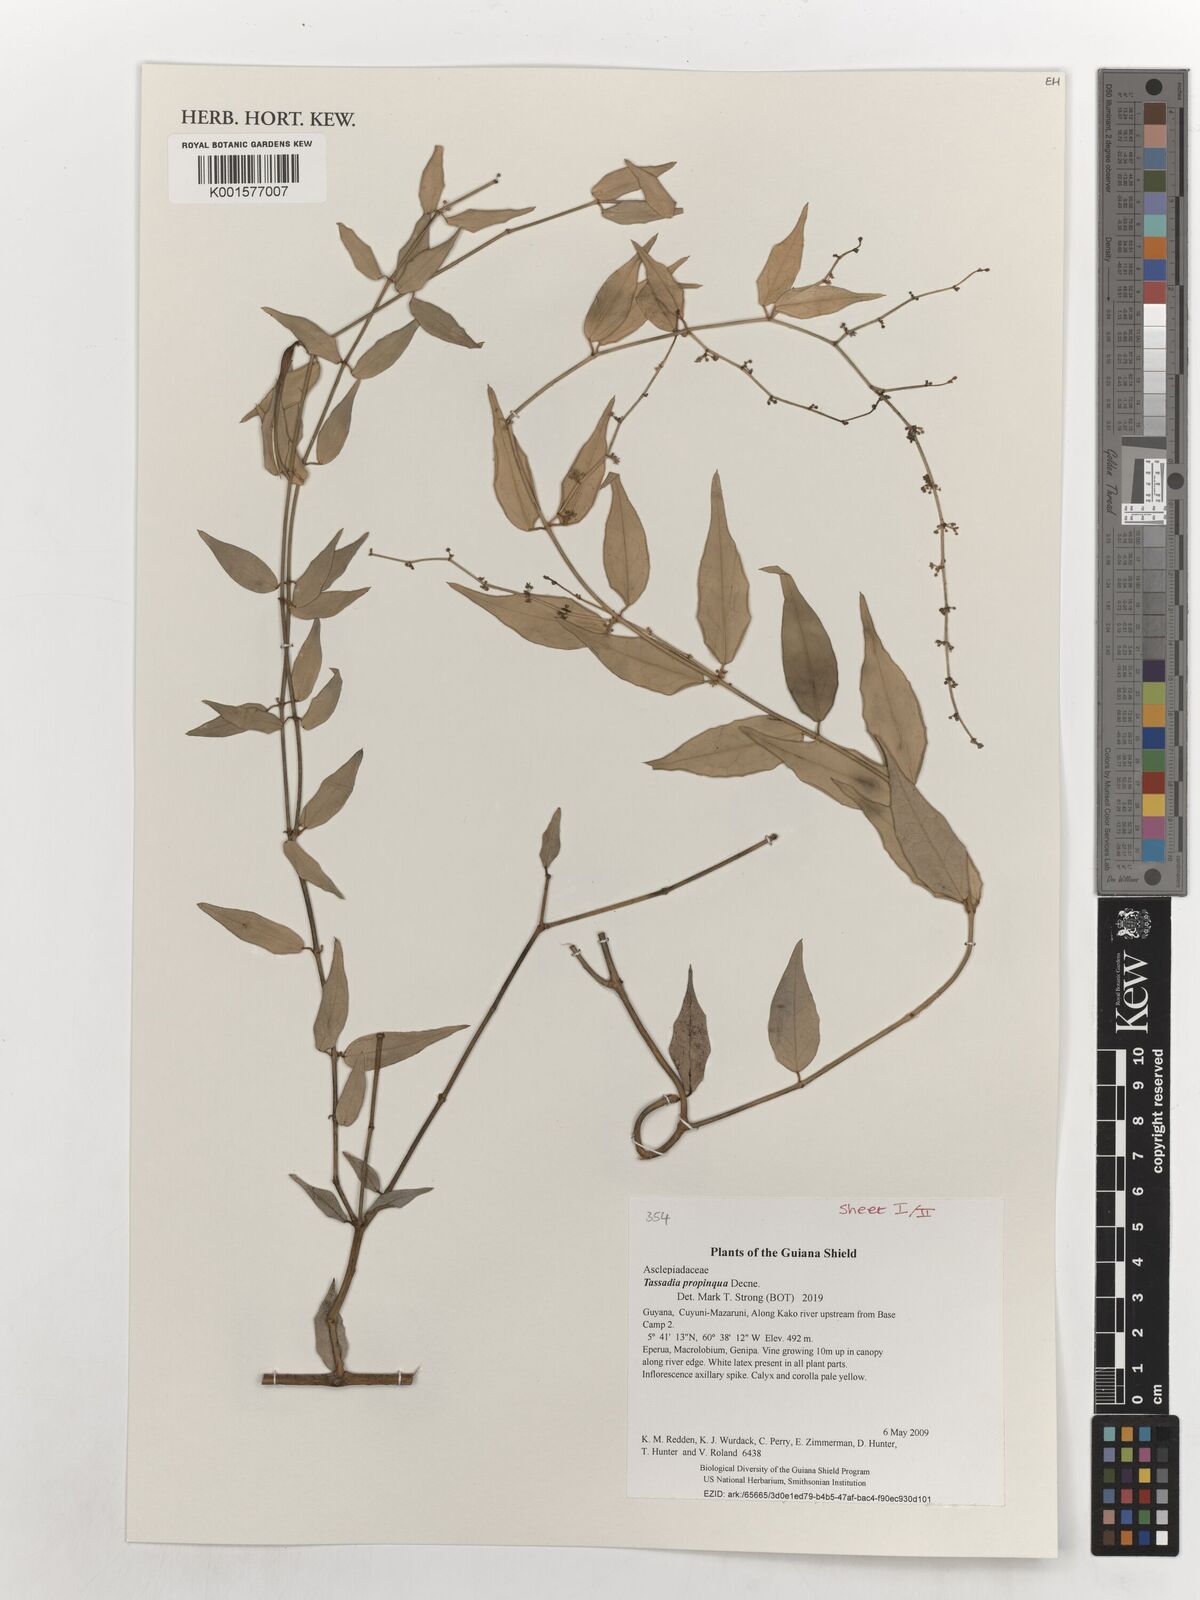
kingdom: Plantae
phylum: Tracheophyta
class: Magnoliopsida
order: Gentianales
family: Apocynaceae
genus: Tassadia
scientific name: Tassadia propinqua
